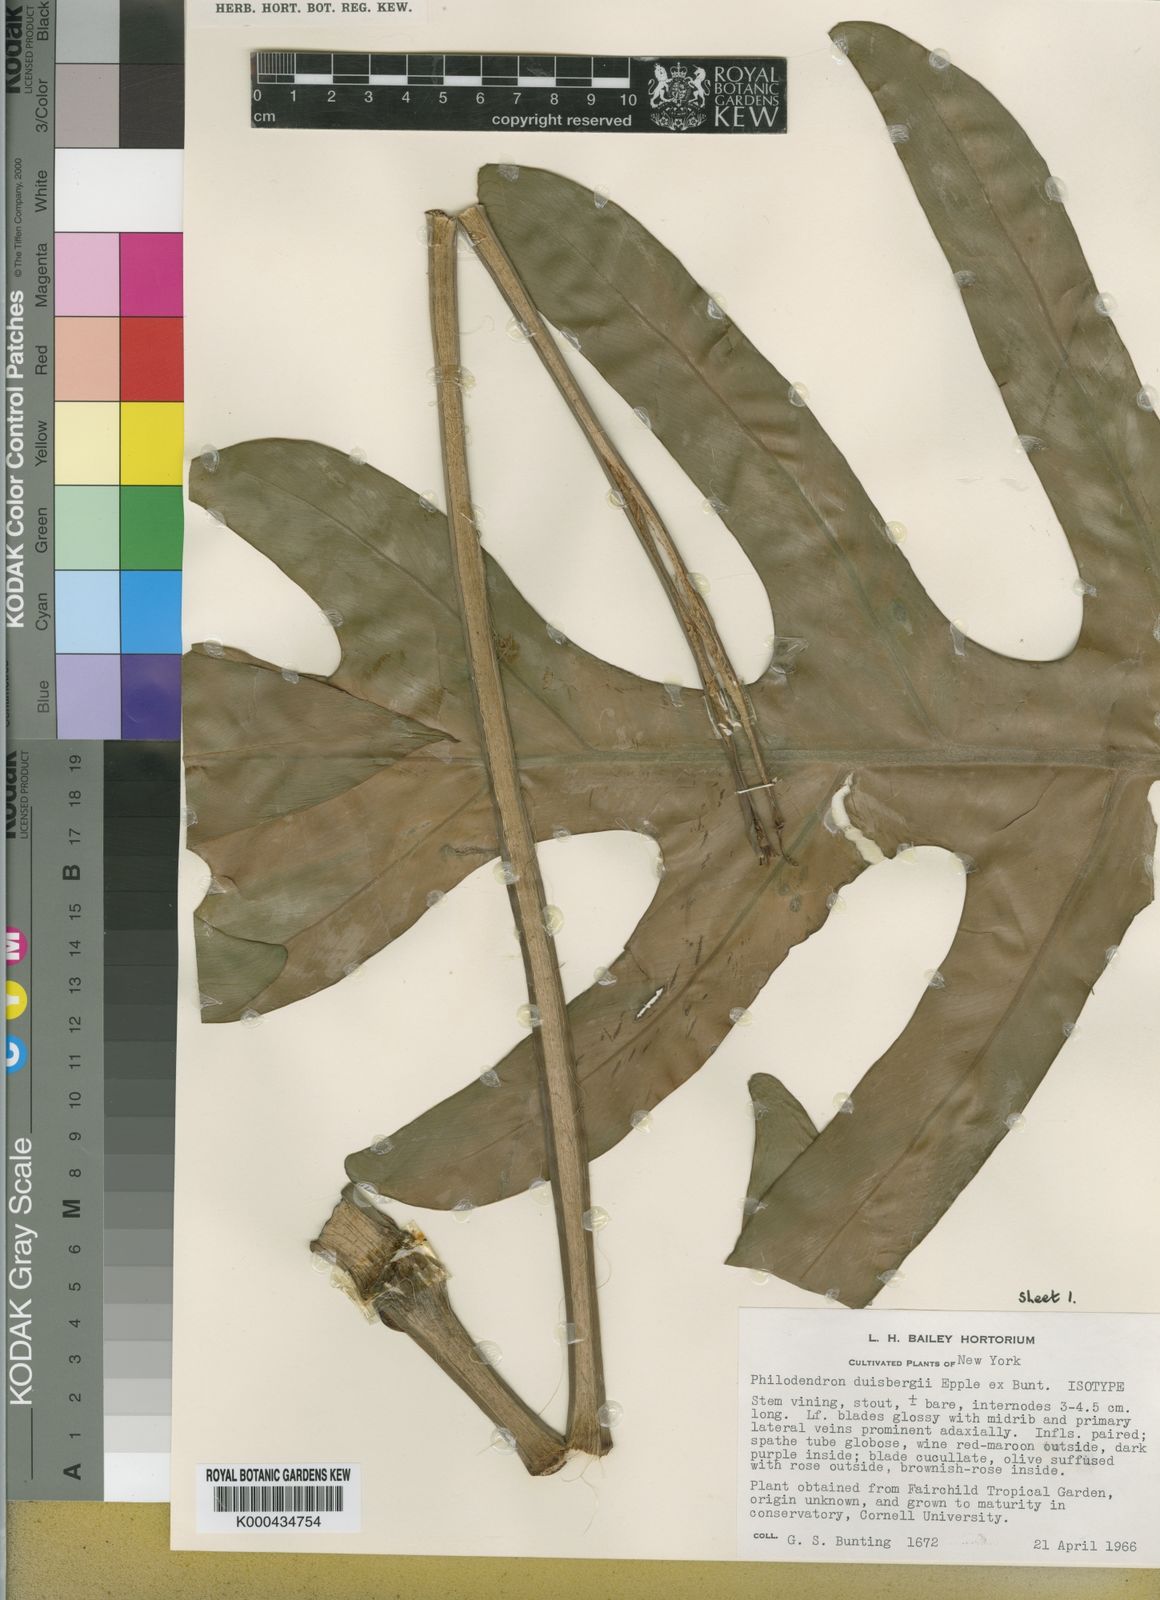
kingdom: Plantae
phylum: Tracheophyta
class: Liliopsida
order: Alismatales
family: Araceae
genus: Philodendron
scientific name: Philodendron fendleri
